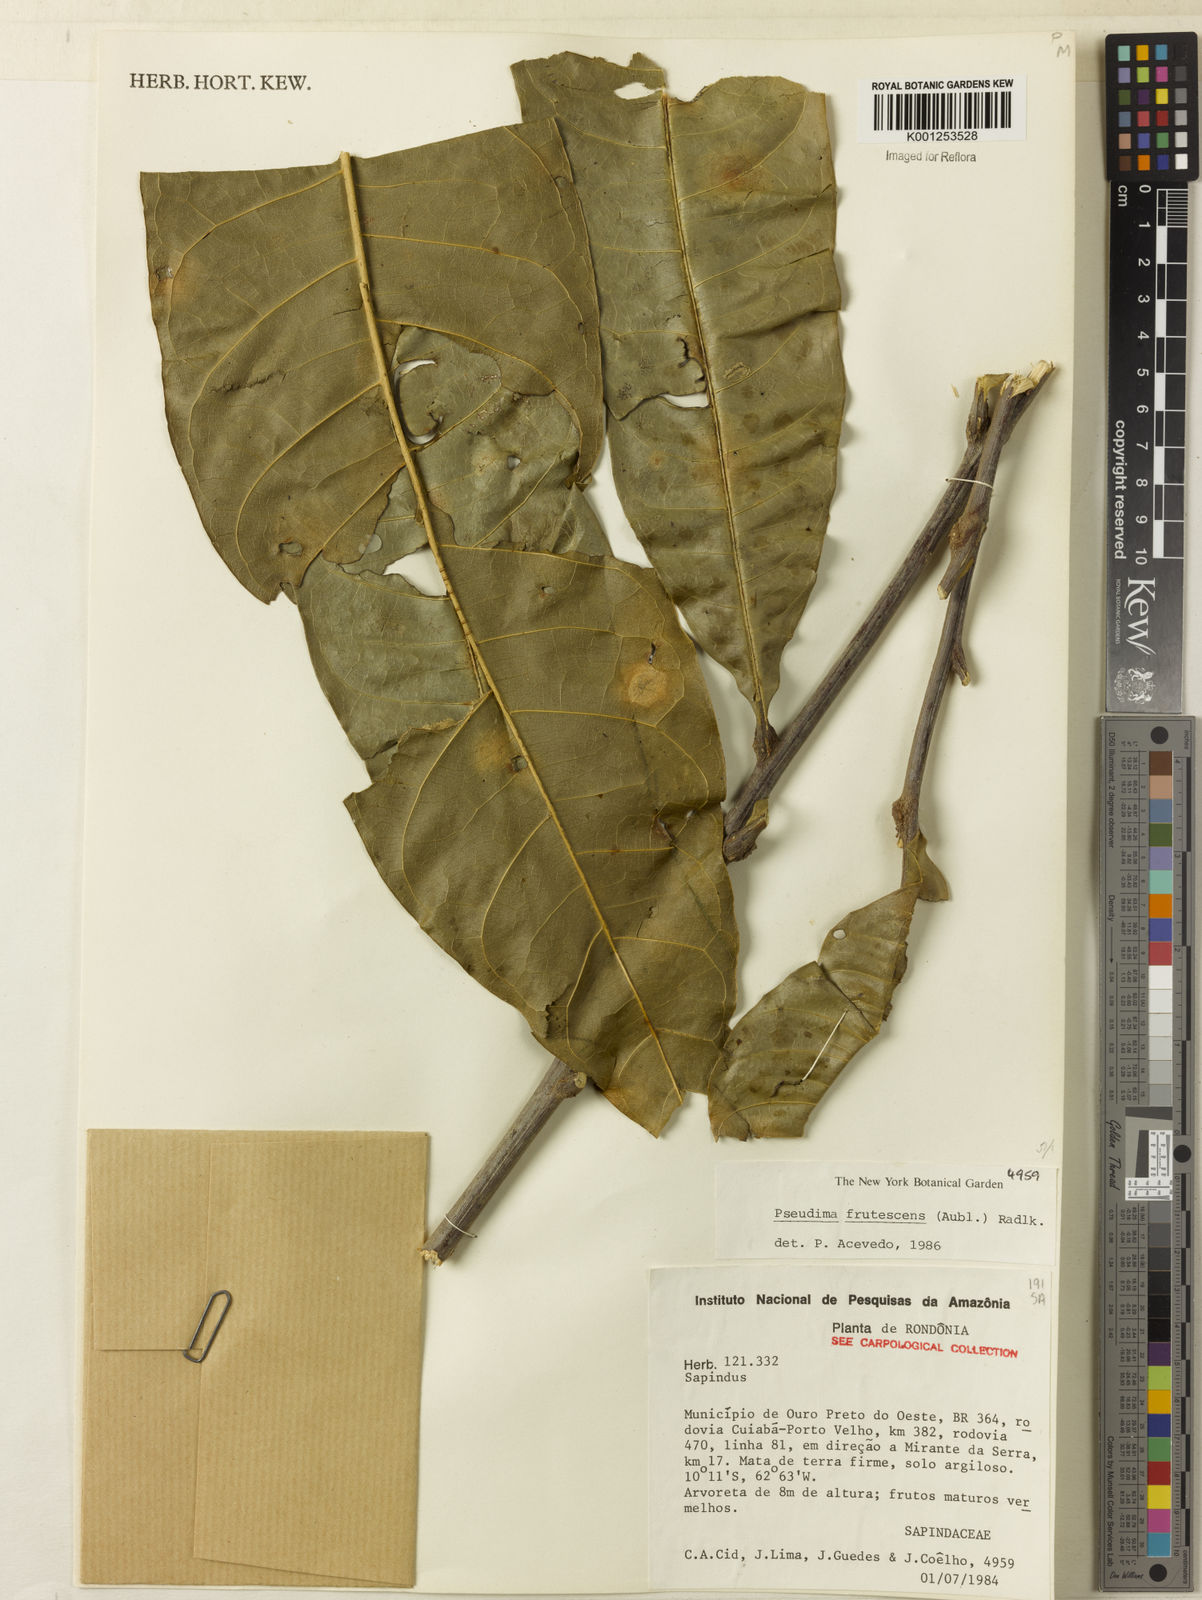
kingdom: Plantae
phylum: Tracheophyta
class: Magnoliopsida
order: Sapindales
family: Sapindaceae
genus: Pseudima
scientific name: Pseudima frutescens
